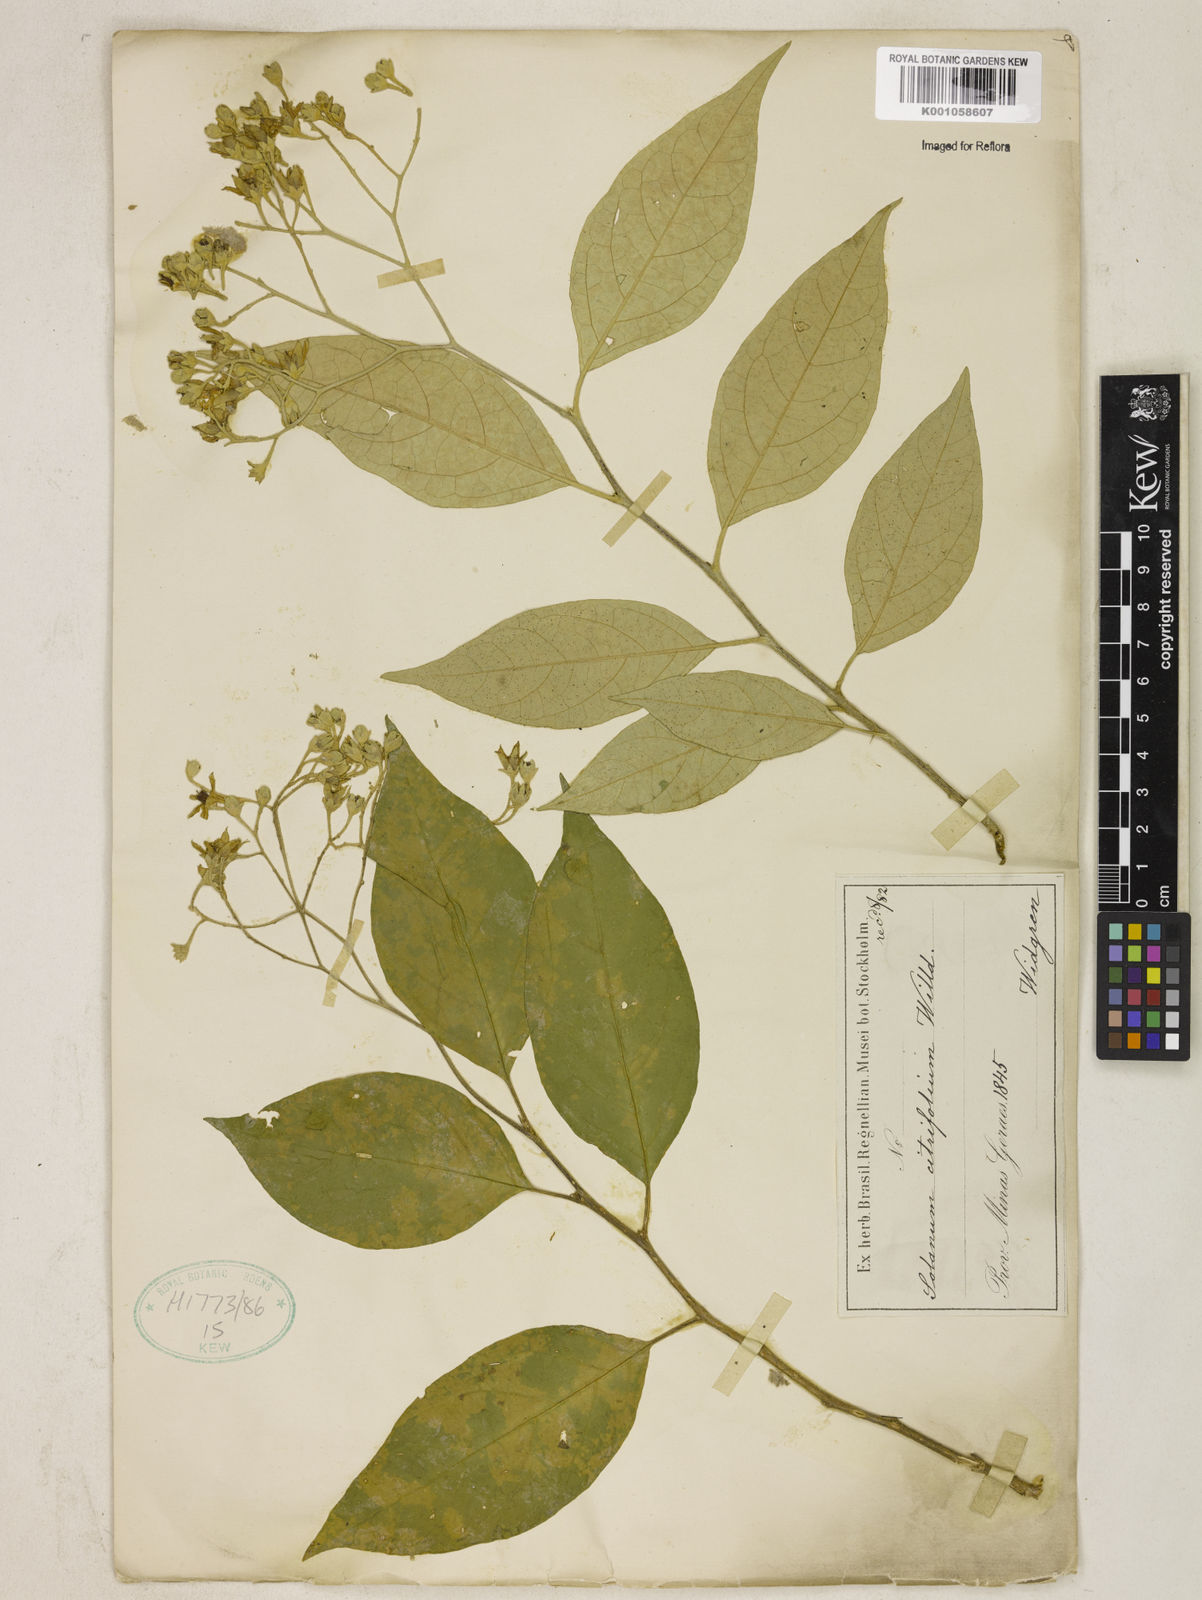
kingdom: Plantae
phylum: Tracheophyta
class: Magnoliopsida
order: Solanales
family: Solanaceae
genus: Solanum
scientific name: Solanum sanctae-catharinae
